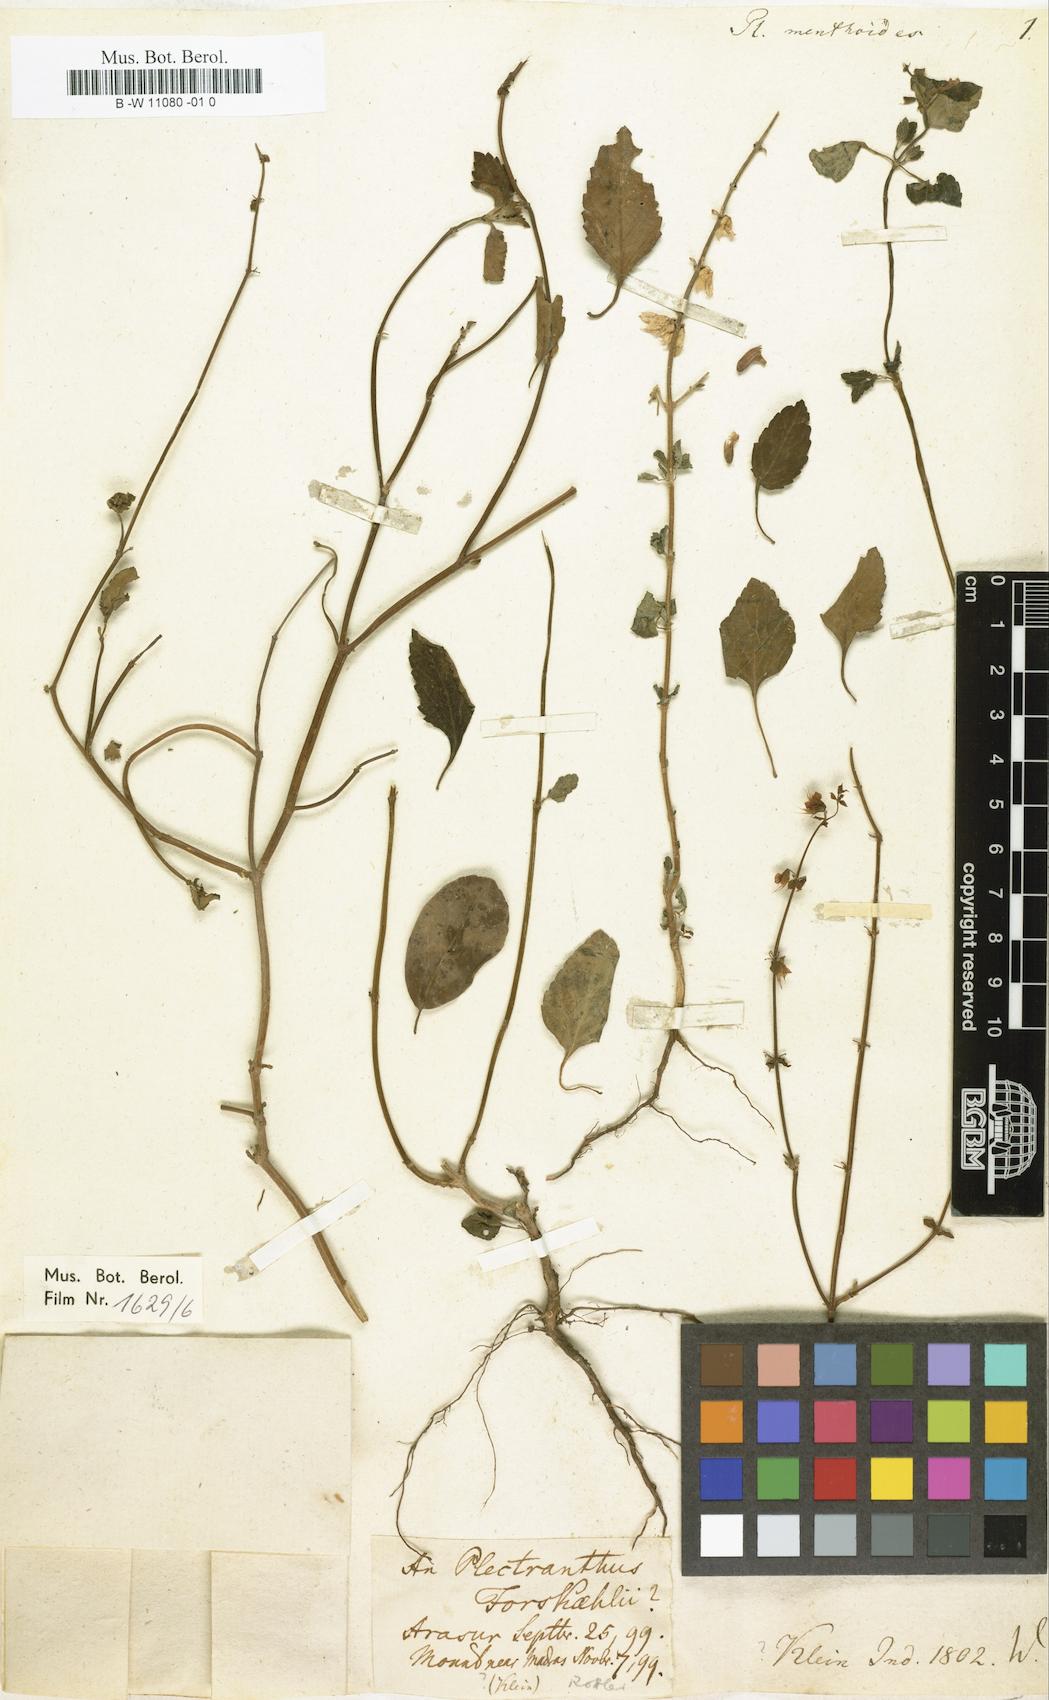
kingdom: Plantae
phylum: Tracheophyta
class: Magnoliopsida
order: Lamiales
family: Lamiaceae
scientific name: Lamiaceae
